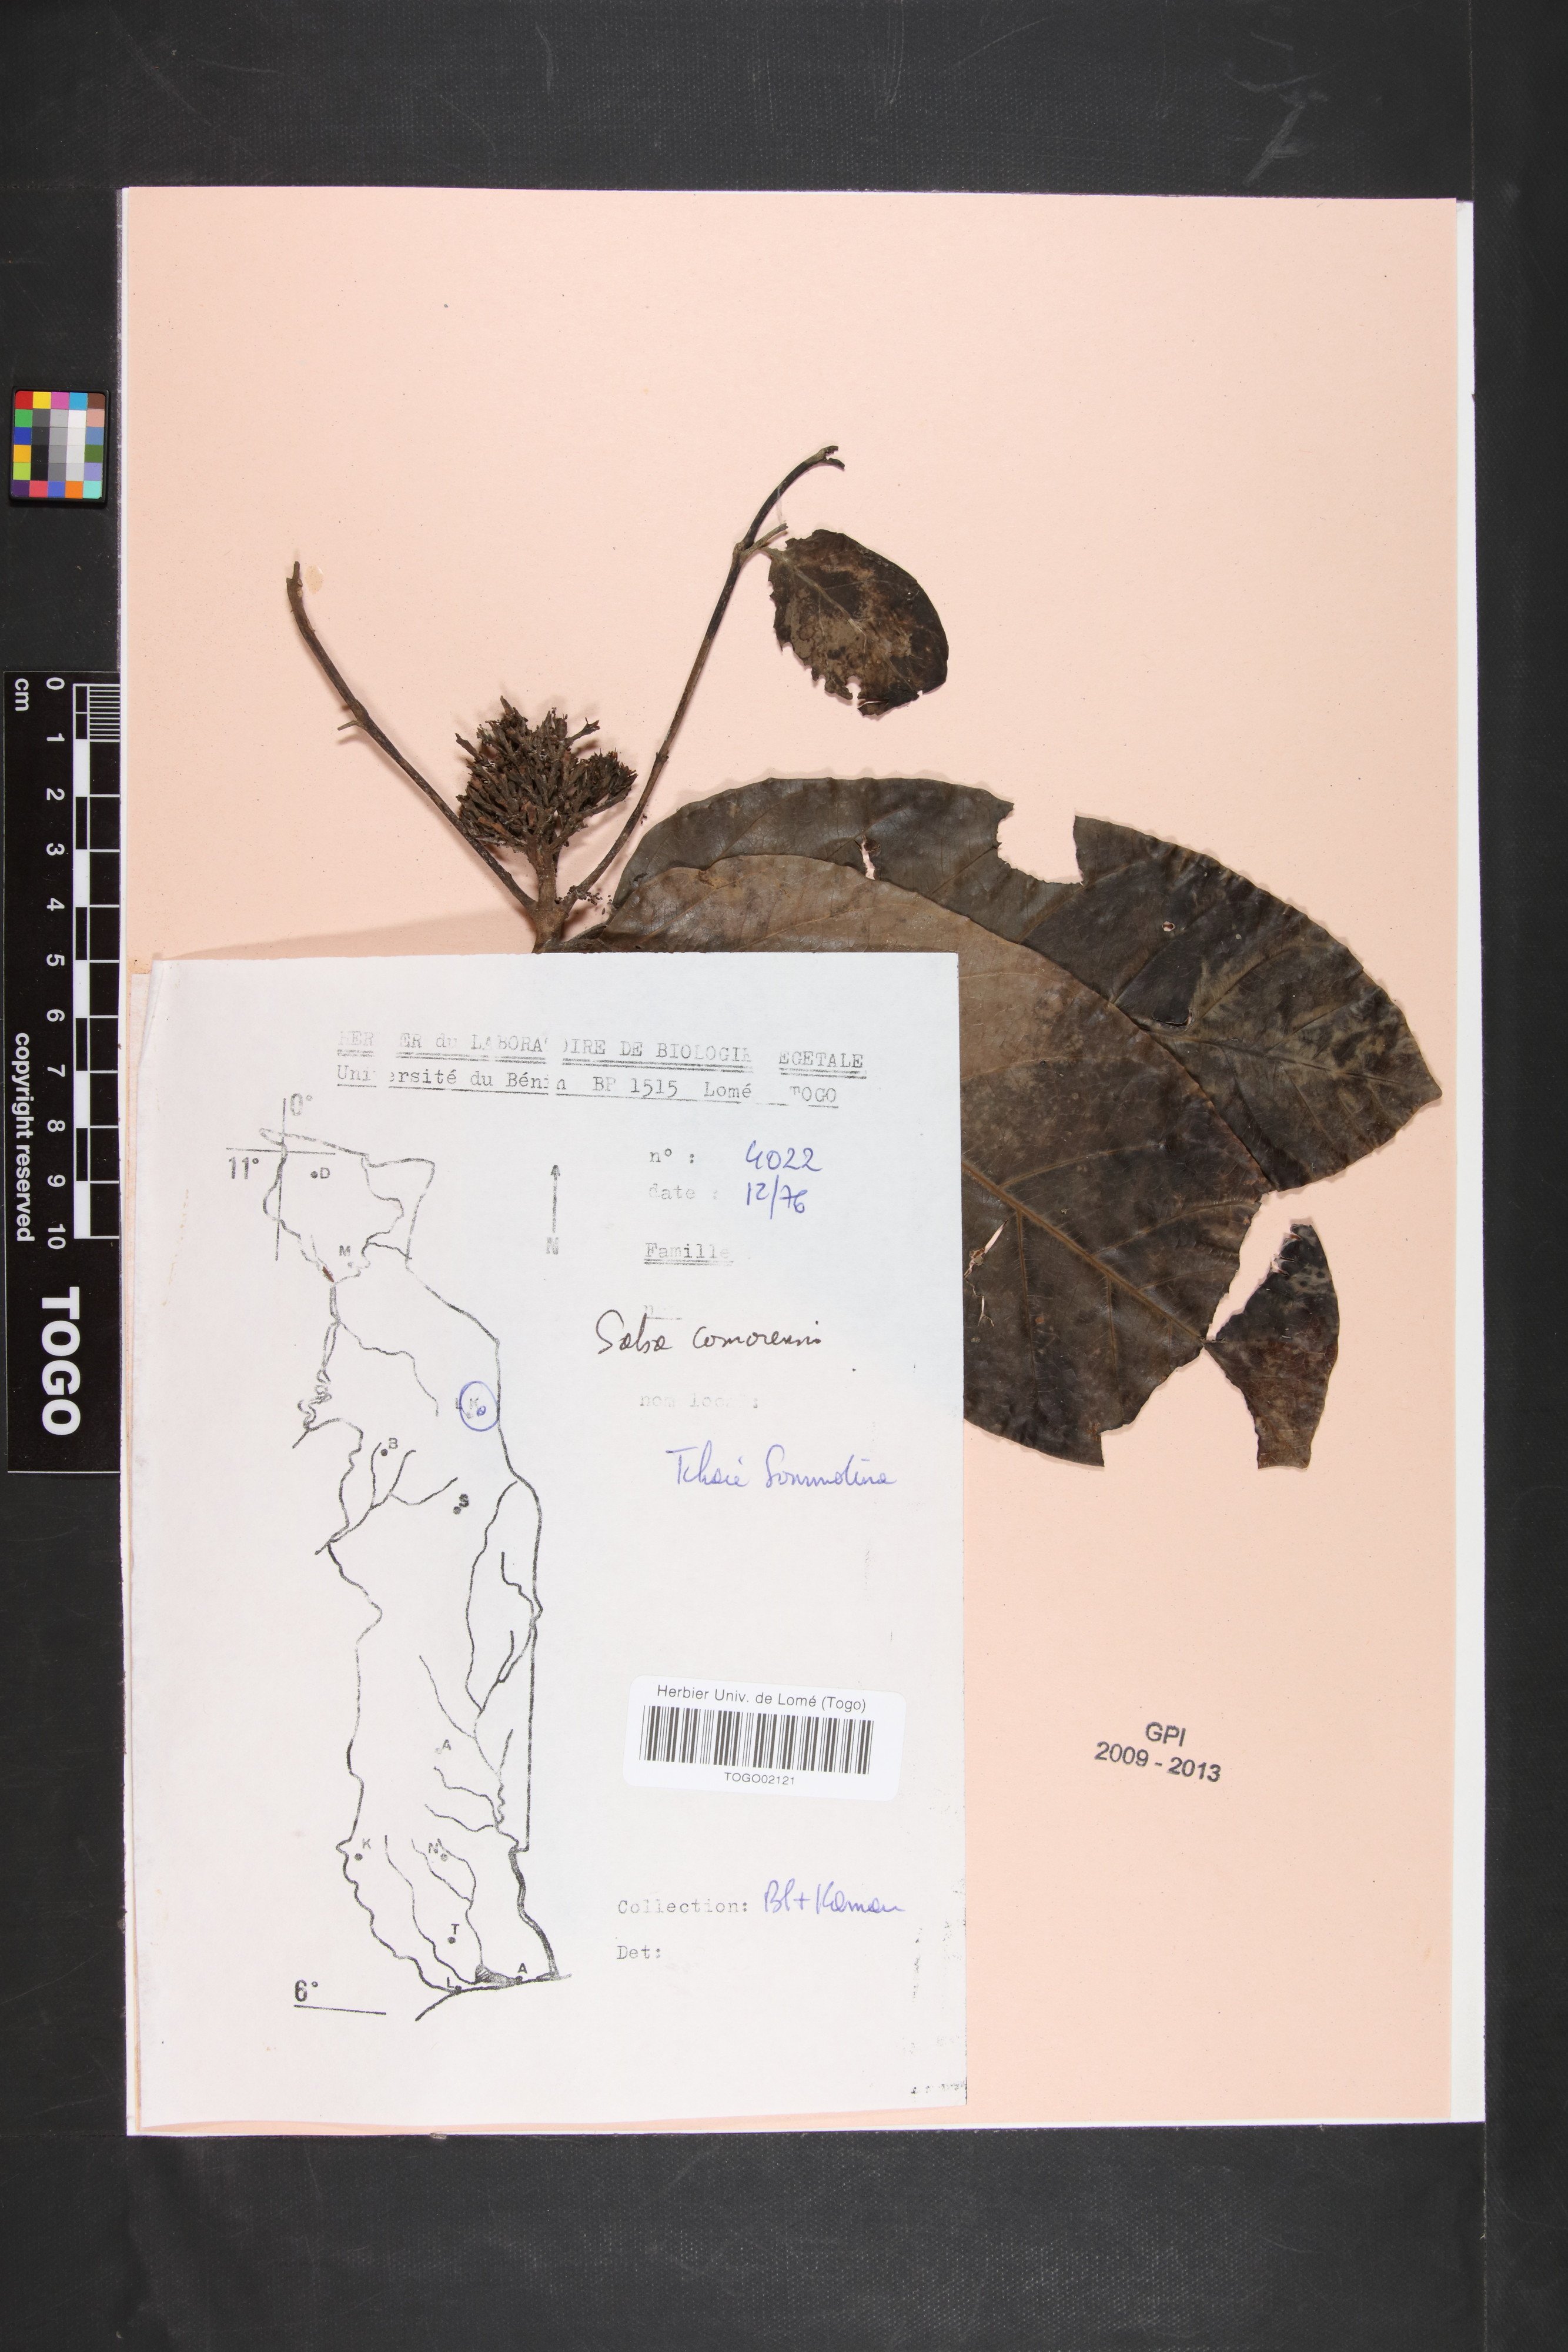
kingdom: Plantae
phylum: Tracheophyta
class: Magnoliopsida
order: Gentianales
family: Apocynaceae
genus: Saba
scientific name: Saba comorensis
